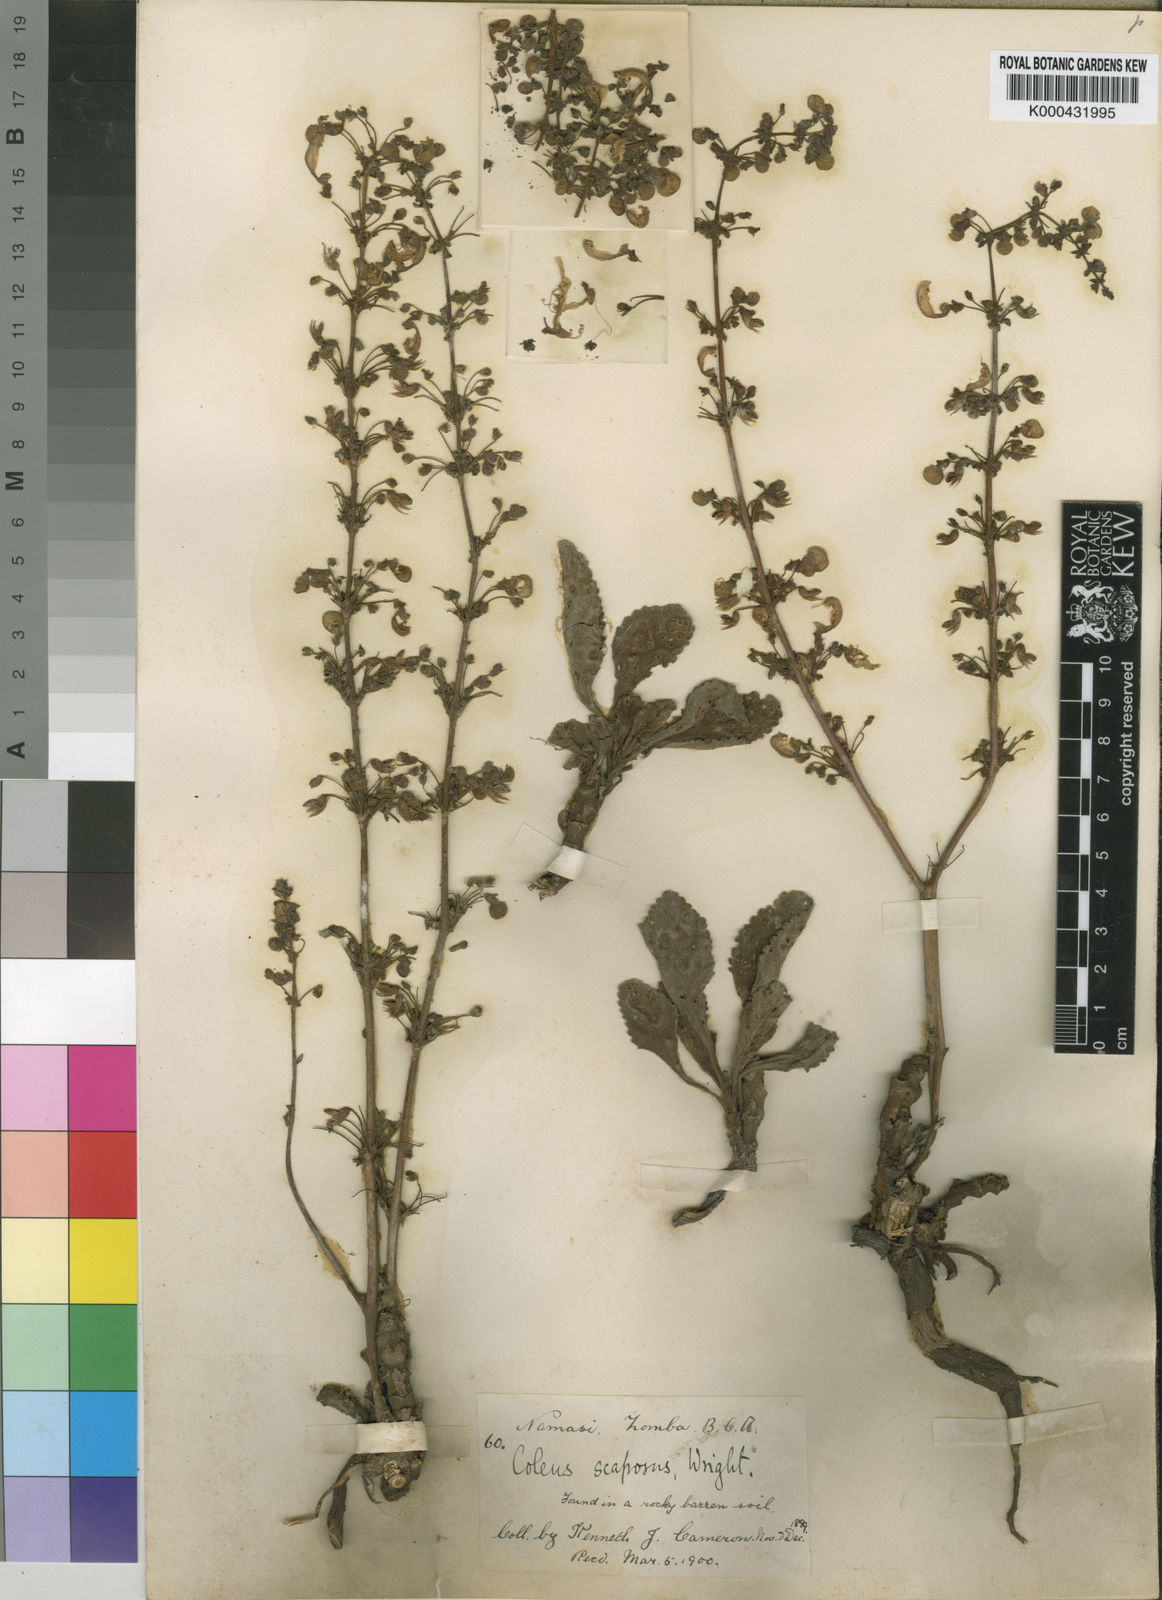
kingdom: Plantae
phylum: Tracheophyta
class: Magnoliopsida
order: Lamiales
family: Lamiaceae
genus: Coleus
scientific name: Coleus buchananii
